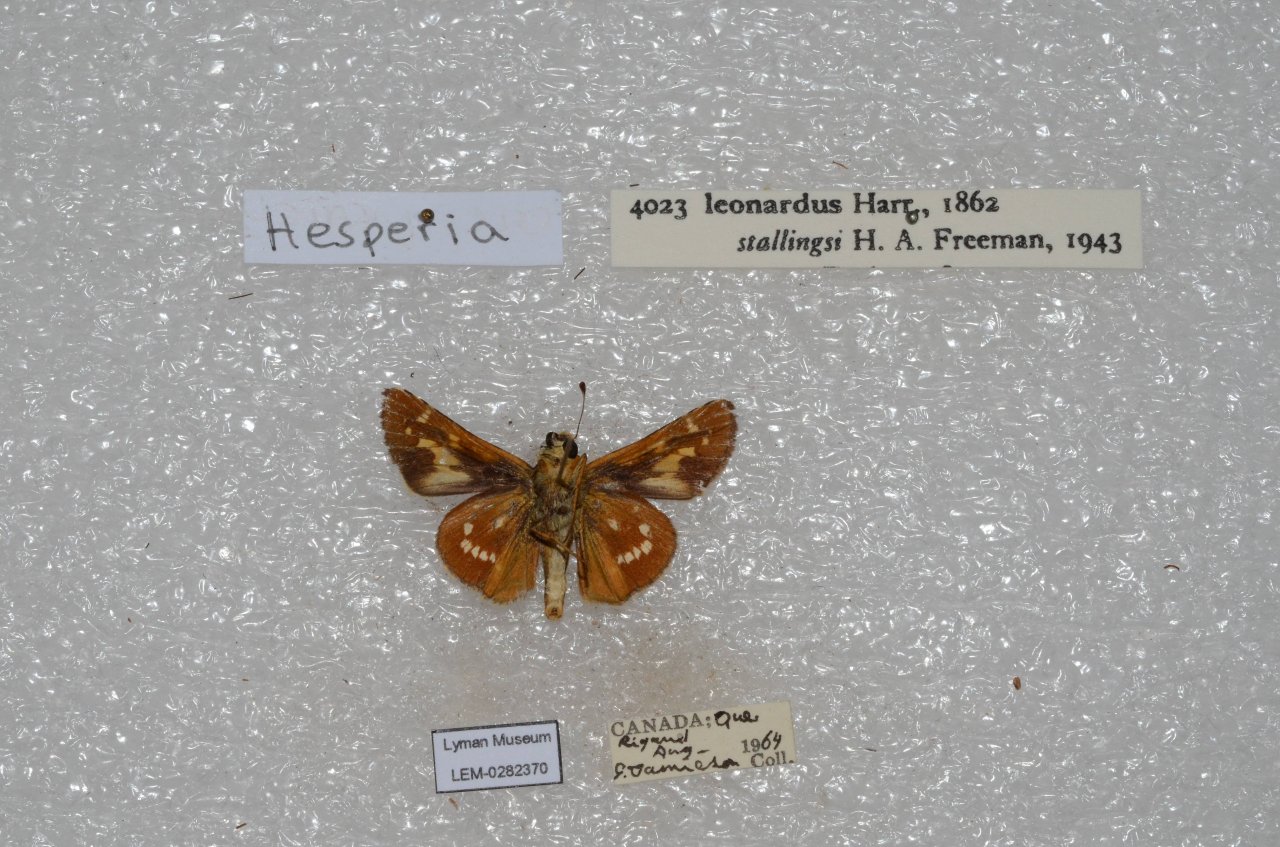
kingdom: Animalia
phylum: Arthropoda
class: Insecta
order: Lepidoptera
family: Hesperiidae
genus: Hesperia
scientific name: Hesperia leonardus
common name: Leonard's Skipper
